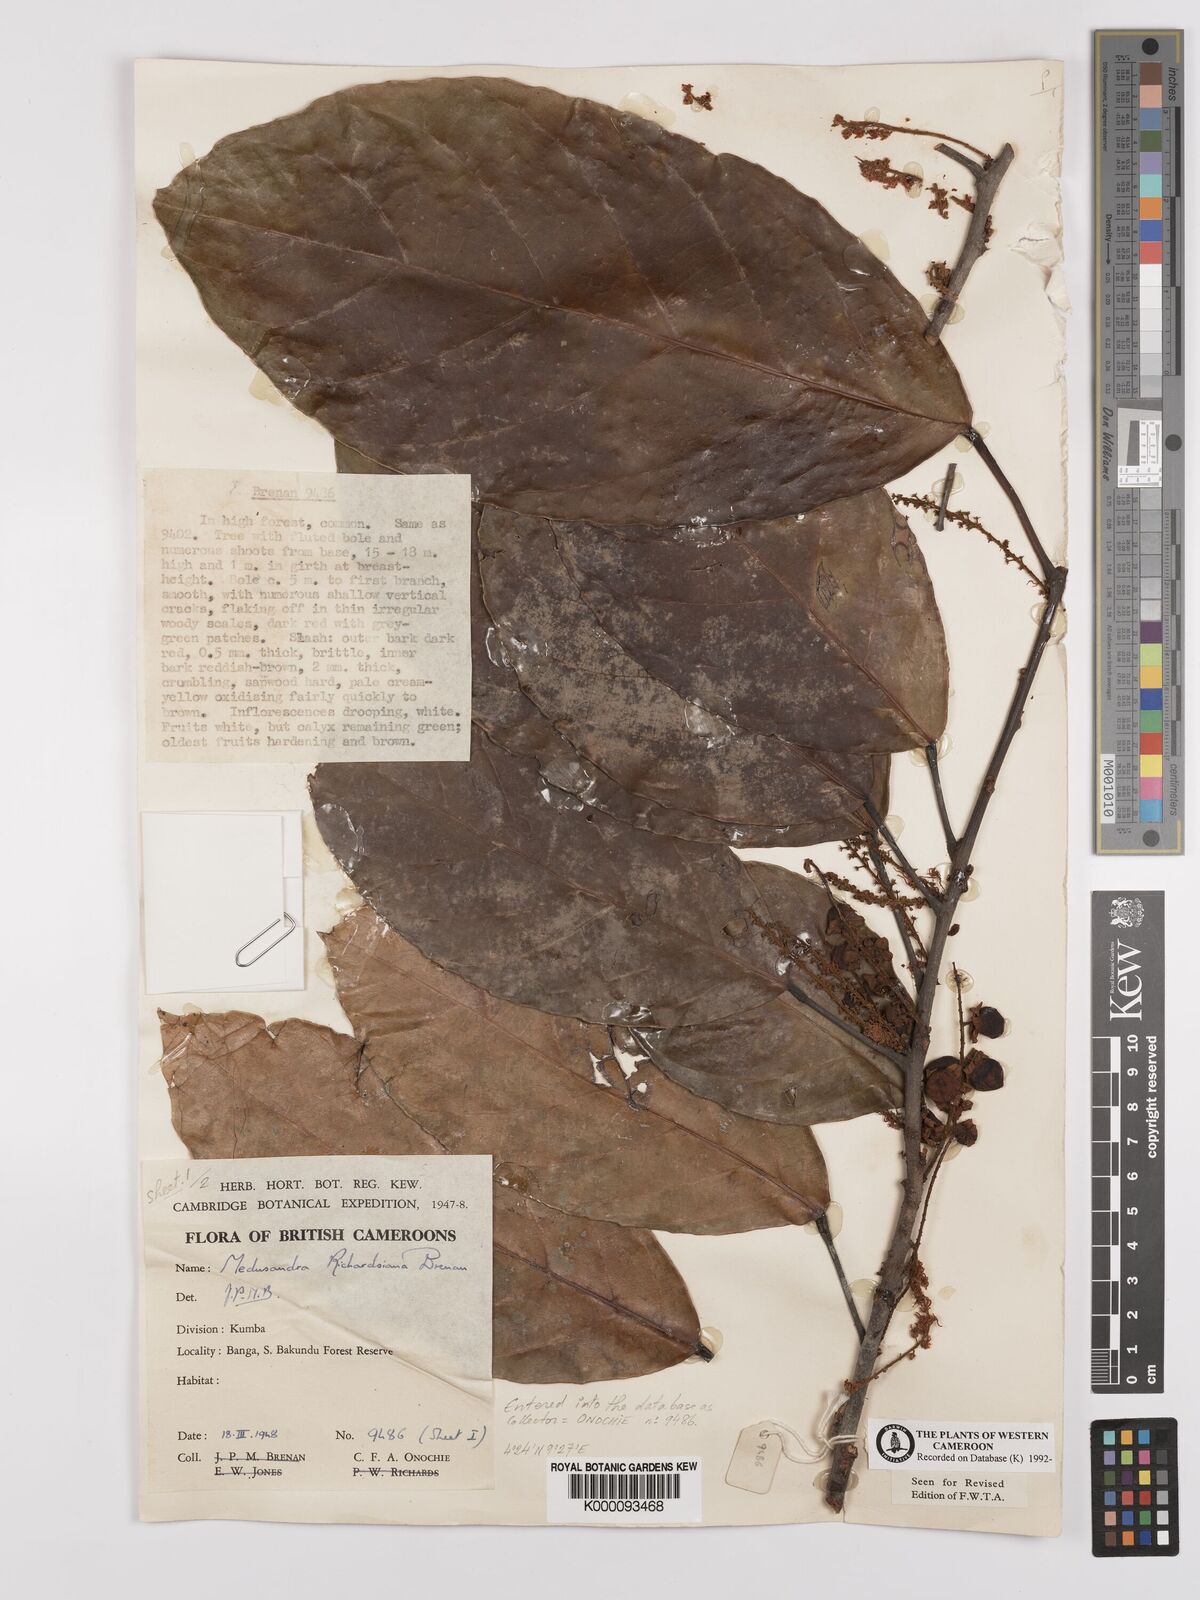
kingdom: Plantae
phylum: Tracheophyta
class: Magnoliopsida
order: Saxifragales
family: Peridiscaceae
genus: Medusandra
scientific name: Medusandra richardsiana
